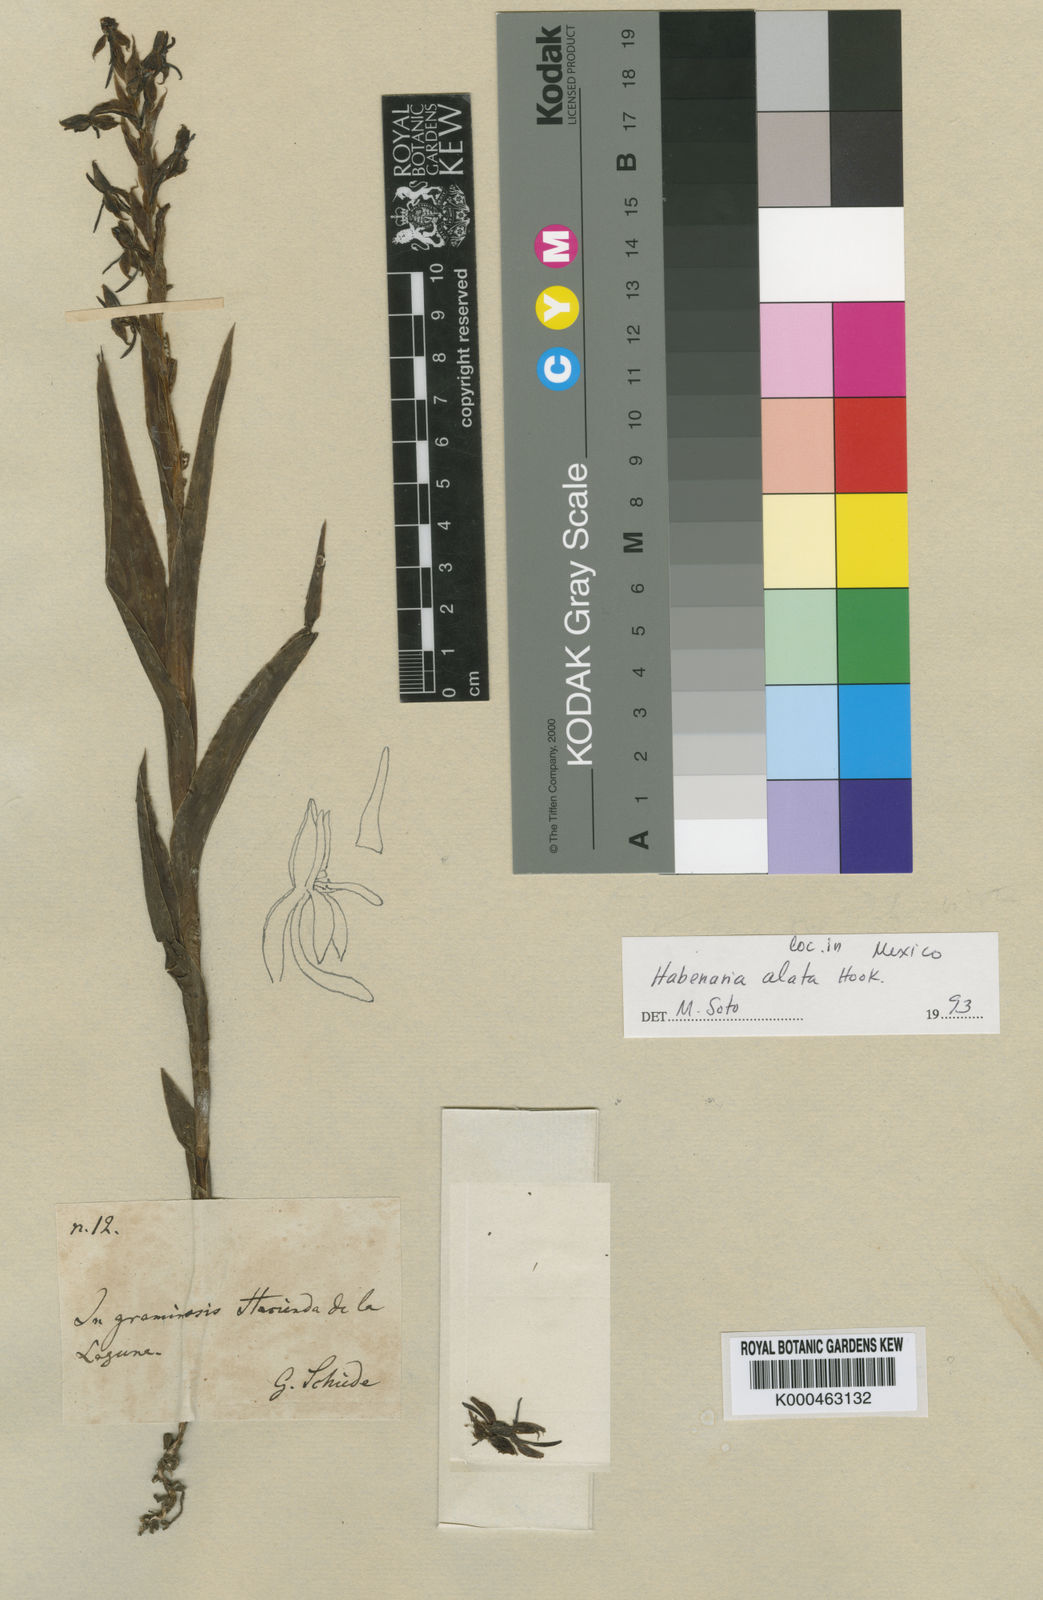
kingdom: Plantae
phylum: Tracheophyta
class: Liliopsida
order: Asparagales
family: Orchidaceae
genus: Habenaria
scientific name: Habenaria alata
